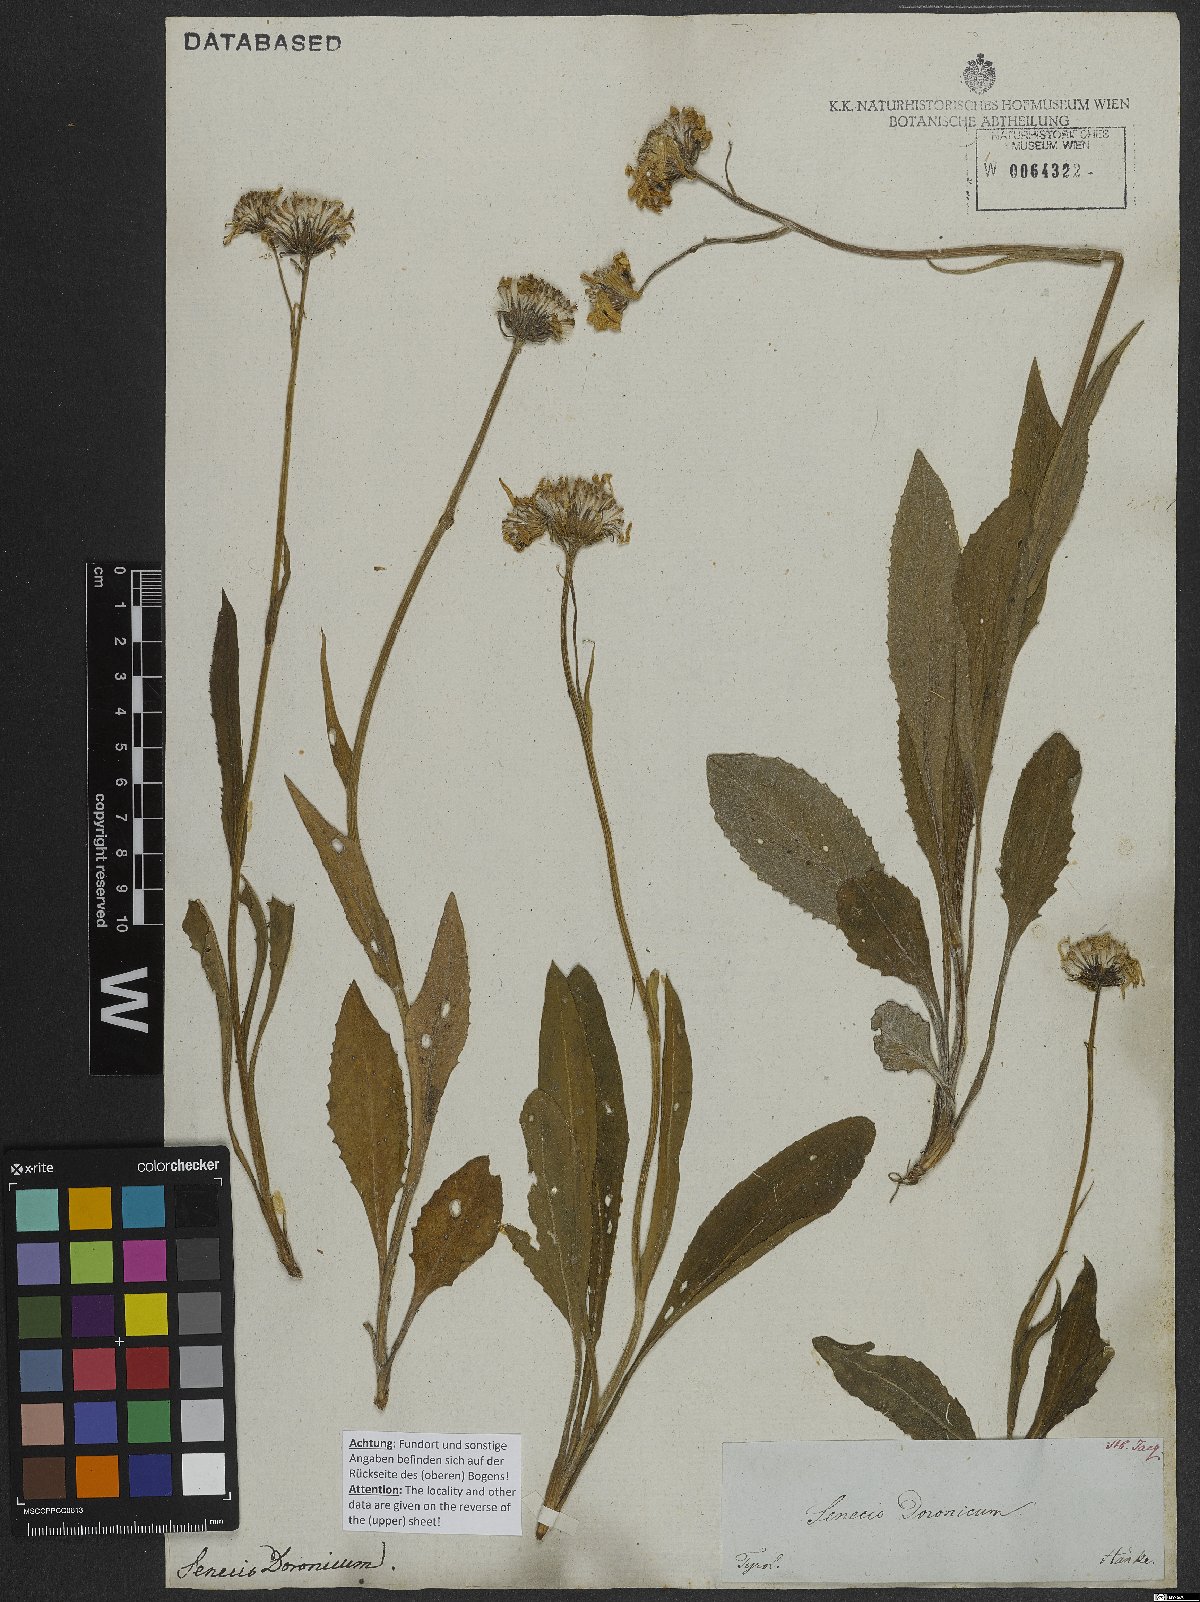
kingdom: Plantae
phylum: Tracheophyta
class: Magnoliopsida
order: Asterales
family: Asteraceae
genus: Senecio
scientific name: Senecio doronicum
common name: Chamois ragwort
